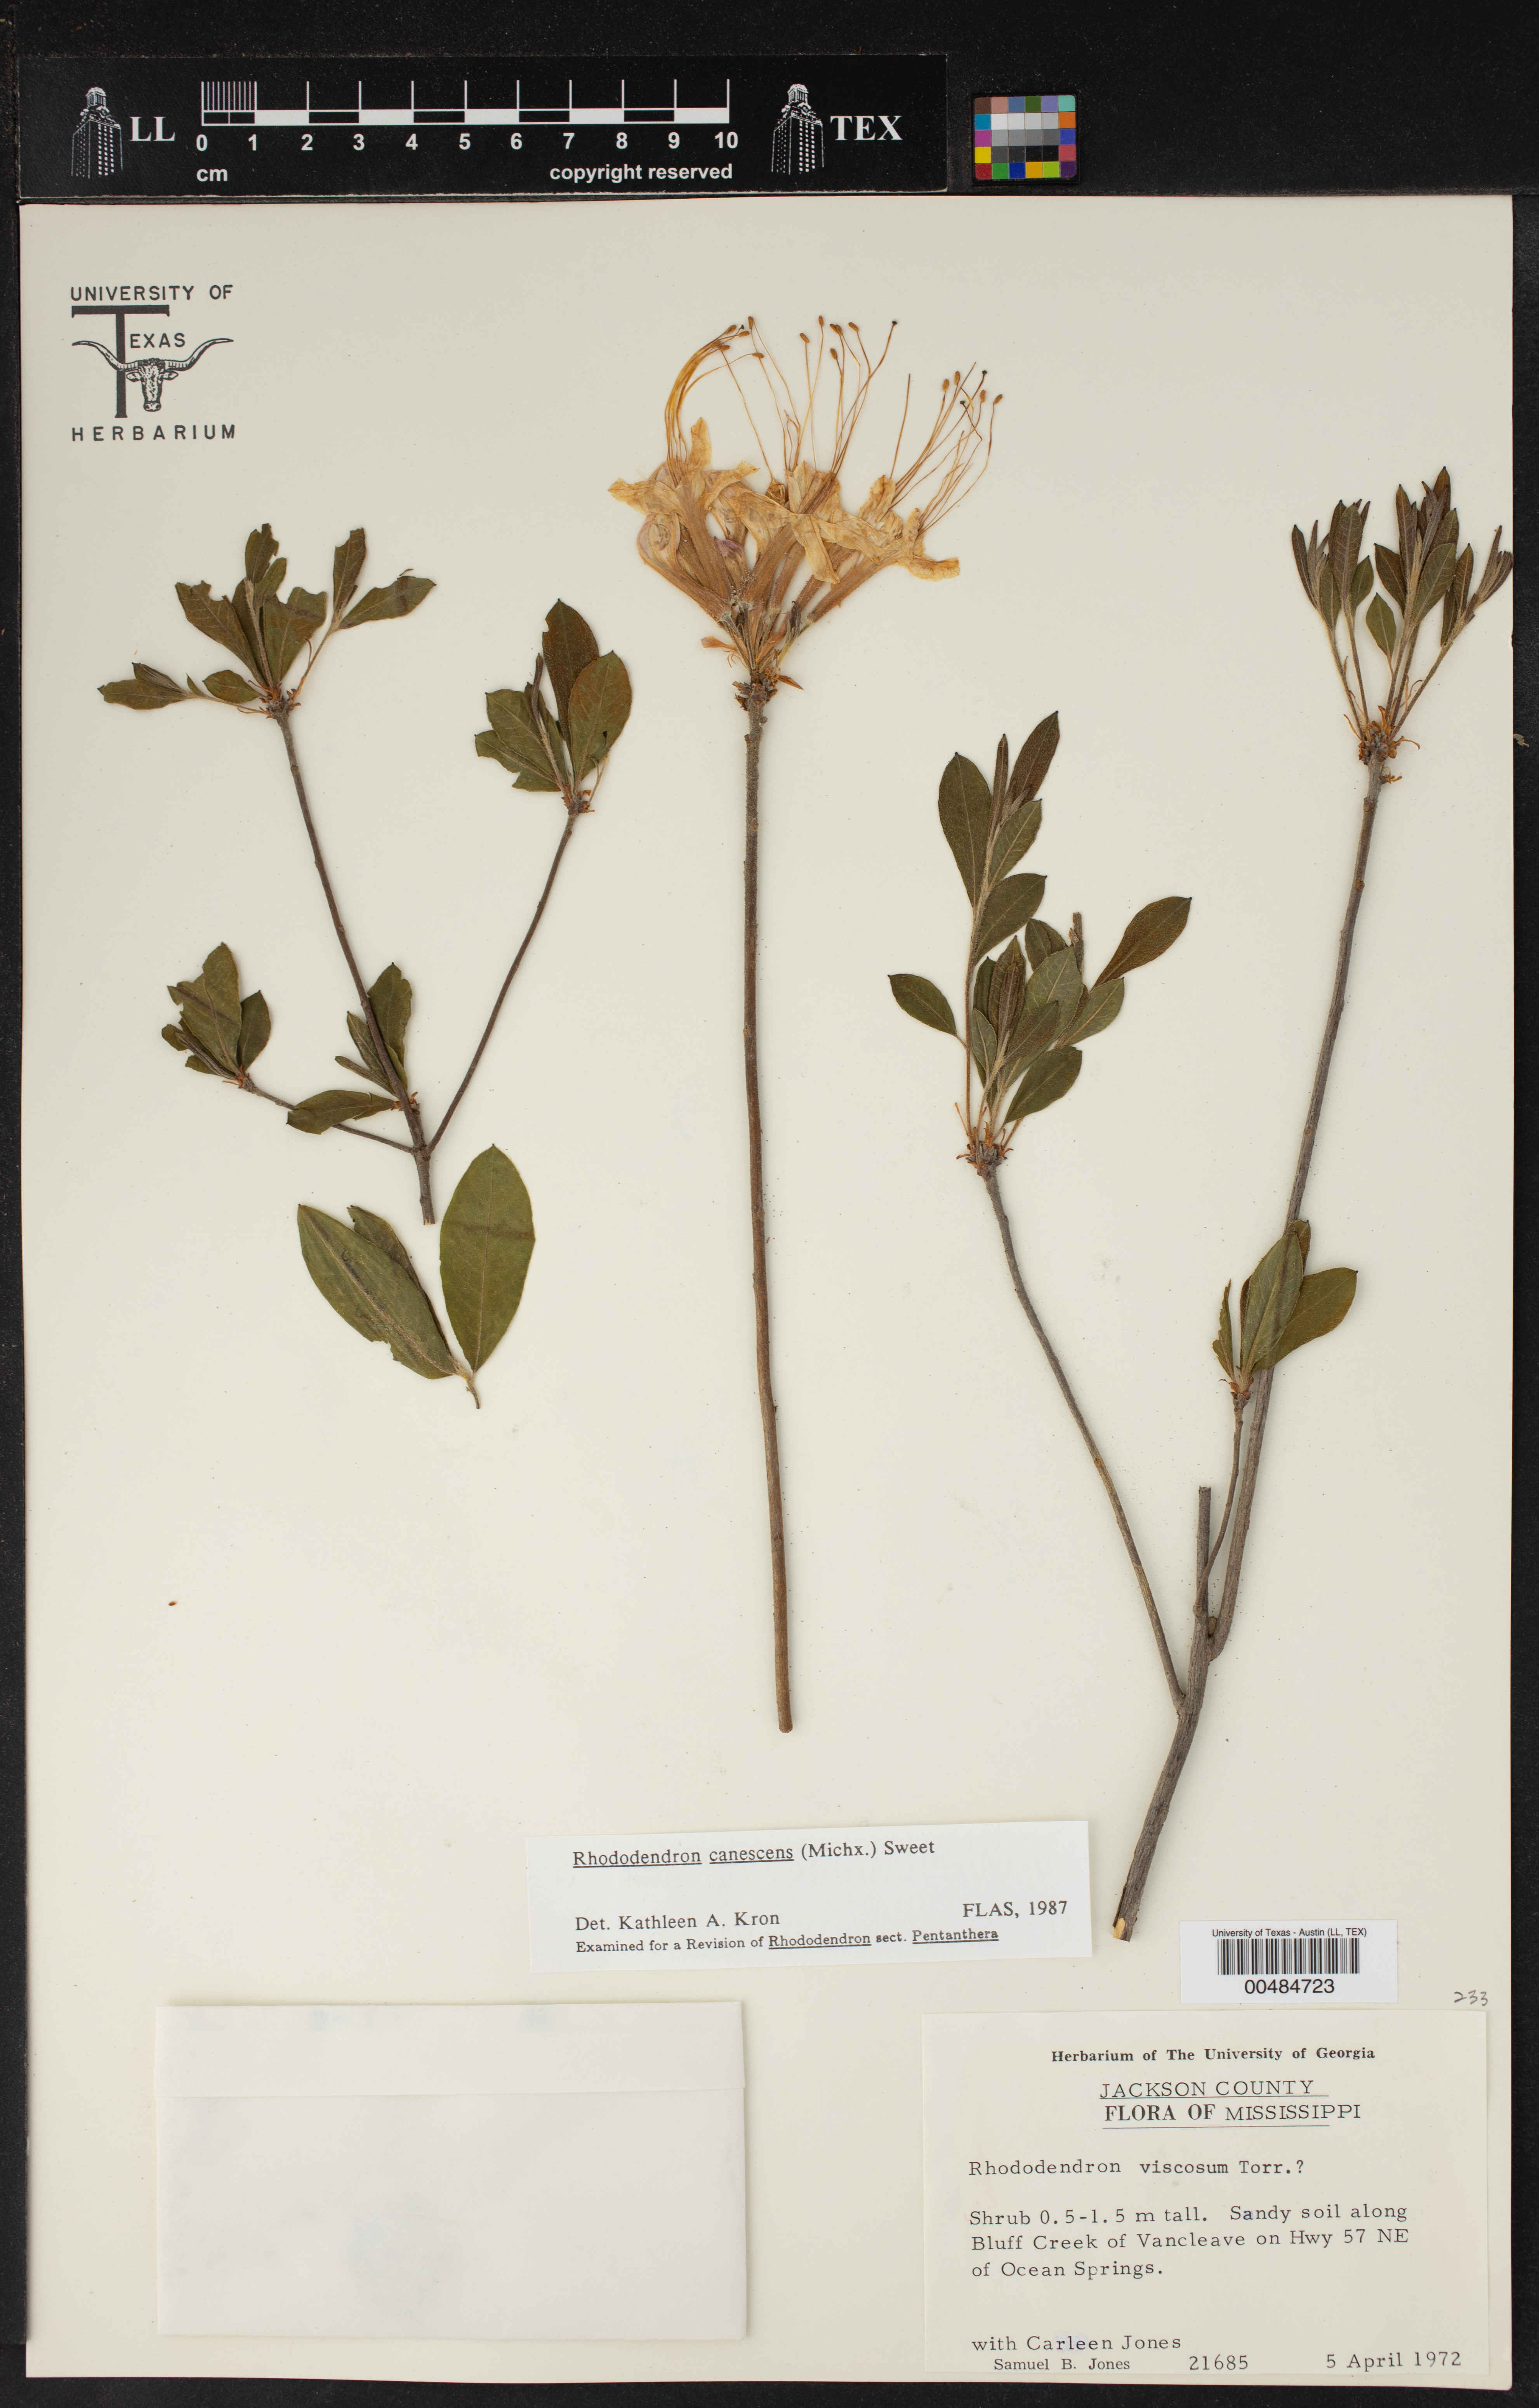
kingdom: Plantae
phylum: Tracheophyta
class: Magnoliopsida
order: Ericales
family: Ericaceae
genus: Rhododendron
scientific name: Rhododendron canescens
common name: Mountain azalea
